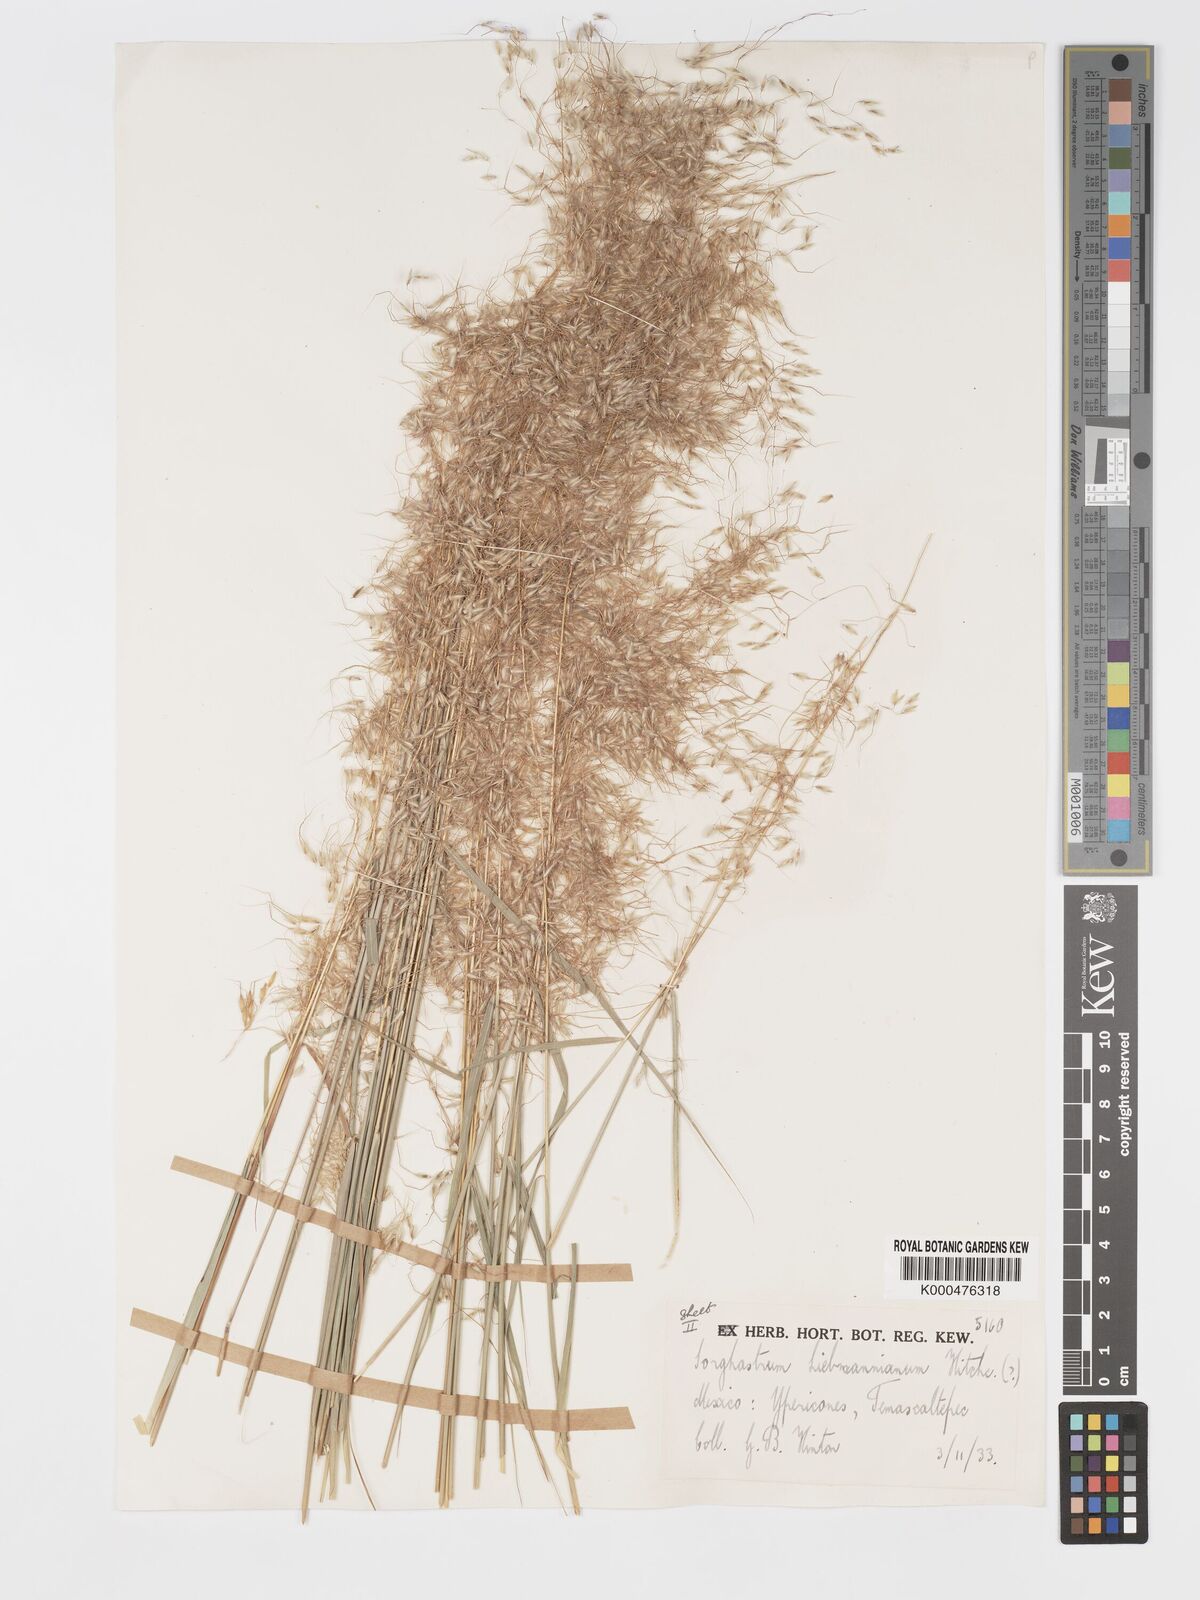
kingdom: Plantae
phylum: Tracheophyta
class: Liliopsida
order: Poales
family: Poaceae
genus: Sorghastrum
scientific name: Sorghastrum incompletum
